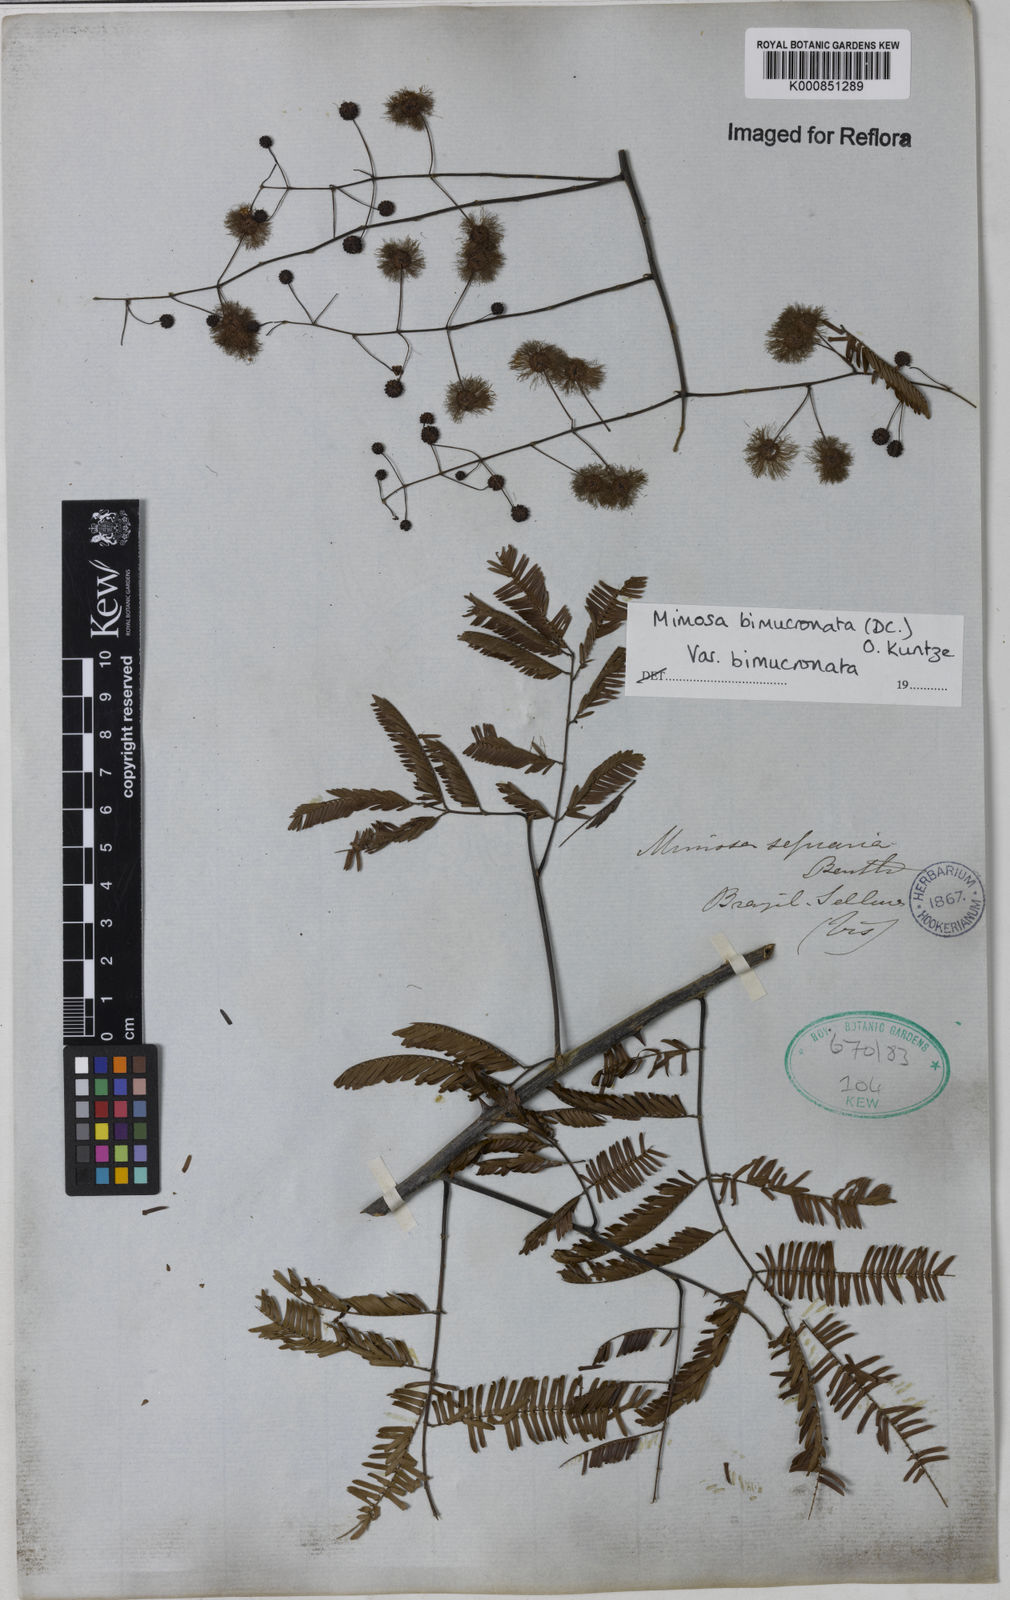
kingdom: Plantae
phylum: Tracheophyta
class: Magnoliopsida
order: Fabales
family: Fabaceae
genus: Mimosa
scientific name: Mimosa bimucronata
